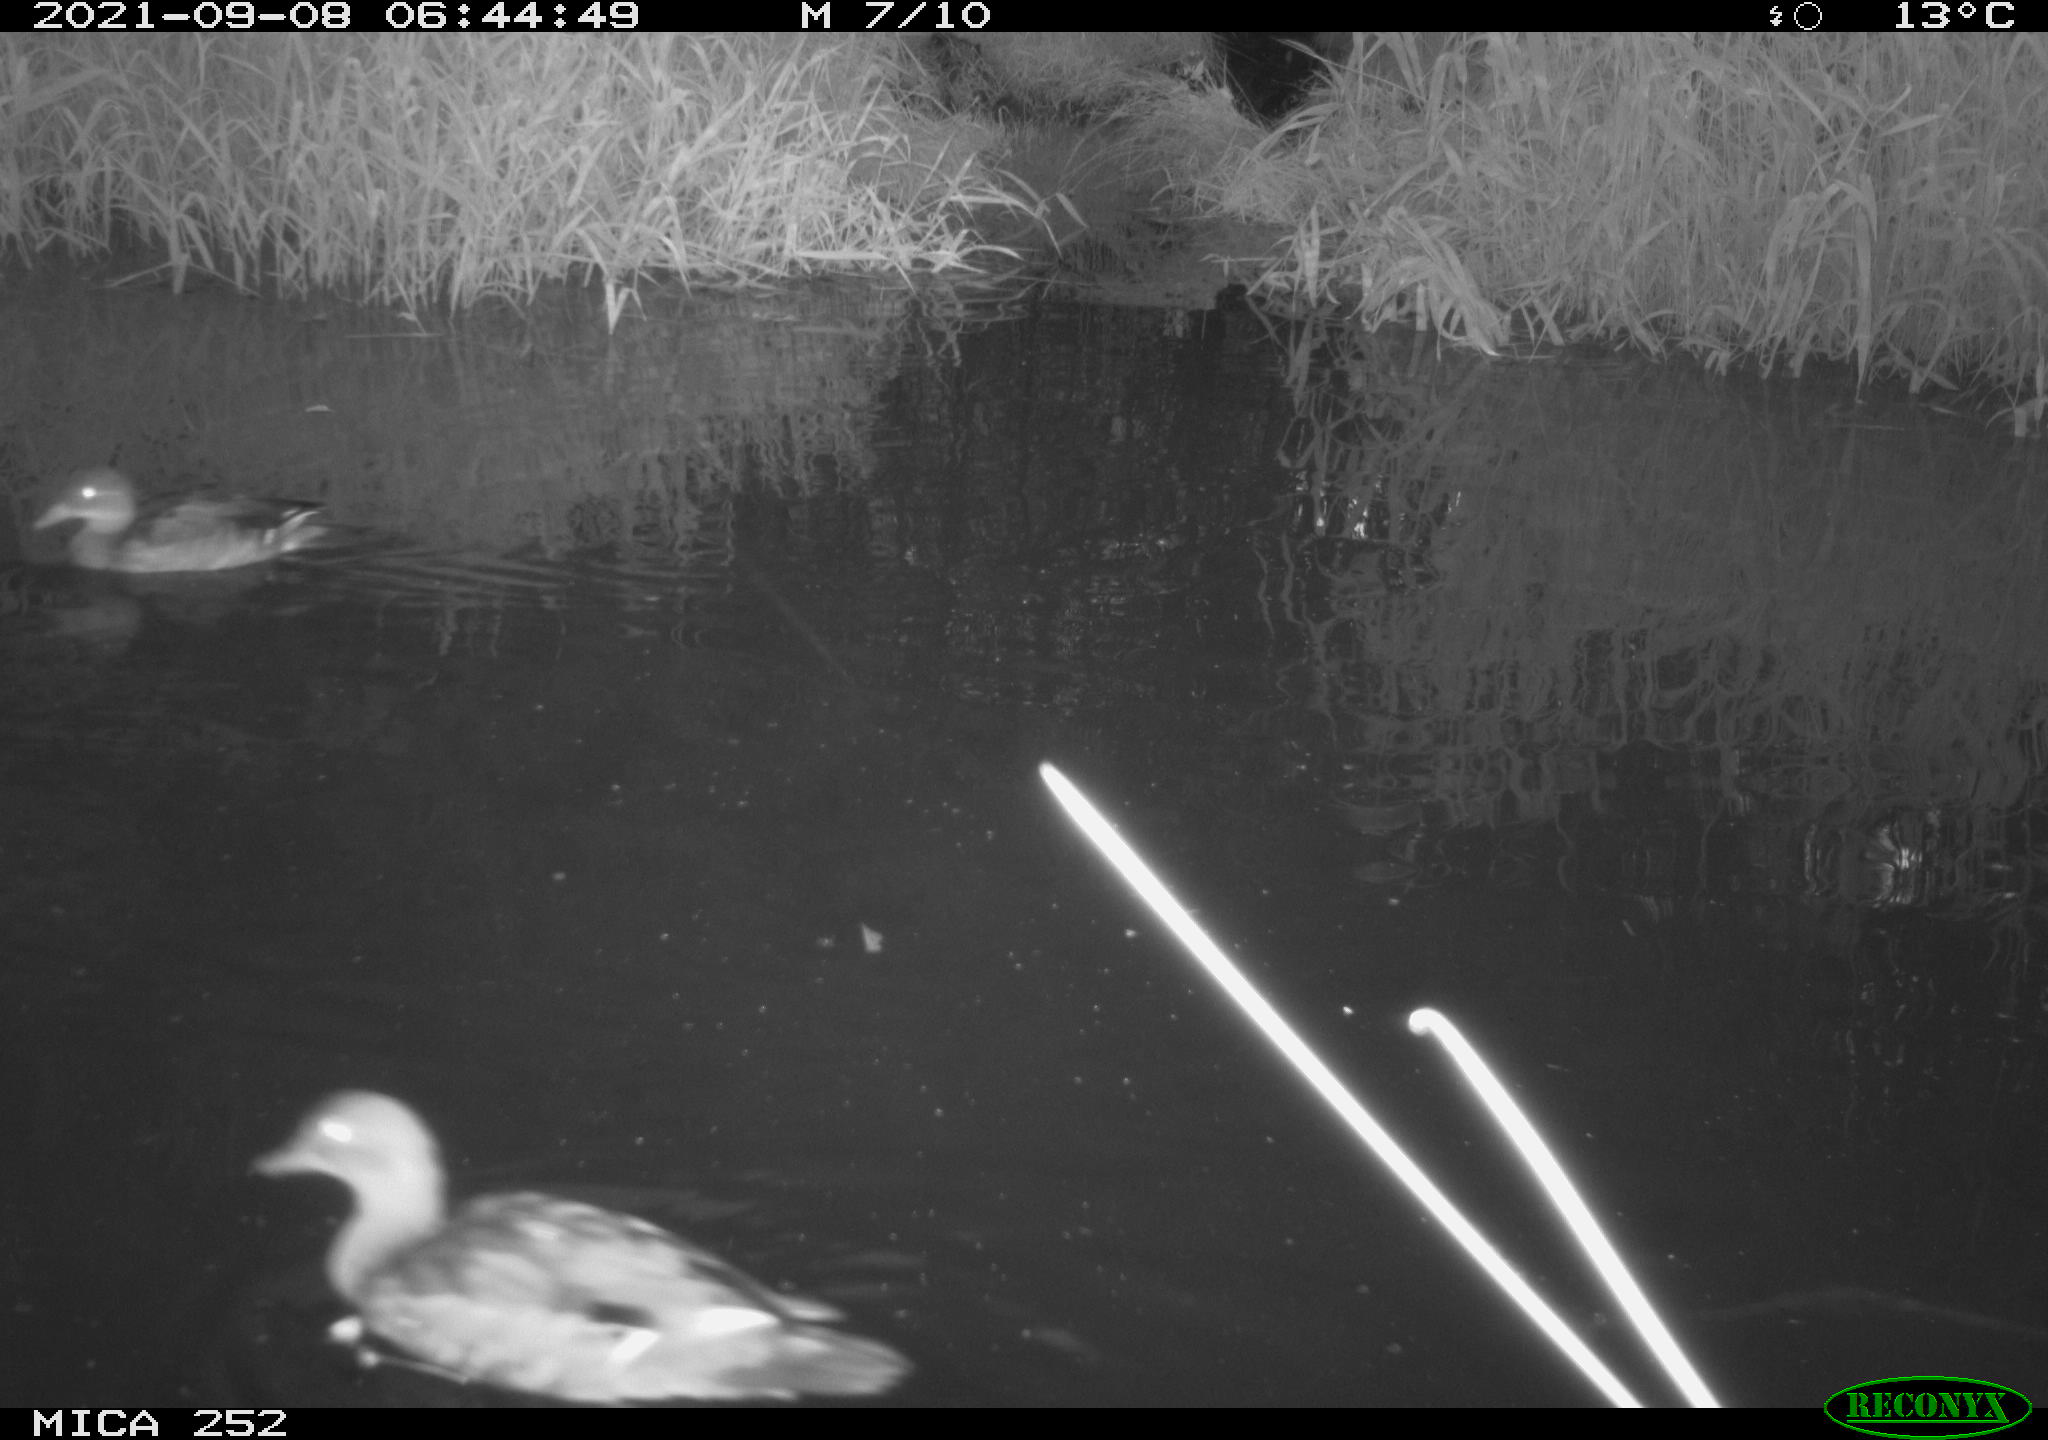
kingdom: Animalia
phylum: Chordata
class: Aves
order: Anseriformes
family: Anatidae
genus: Anas
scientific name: Anas platyrhynchos
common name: Mallard
